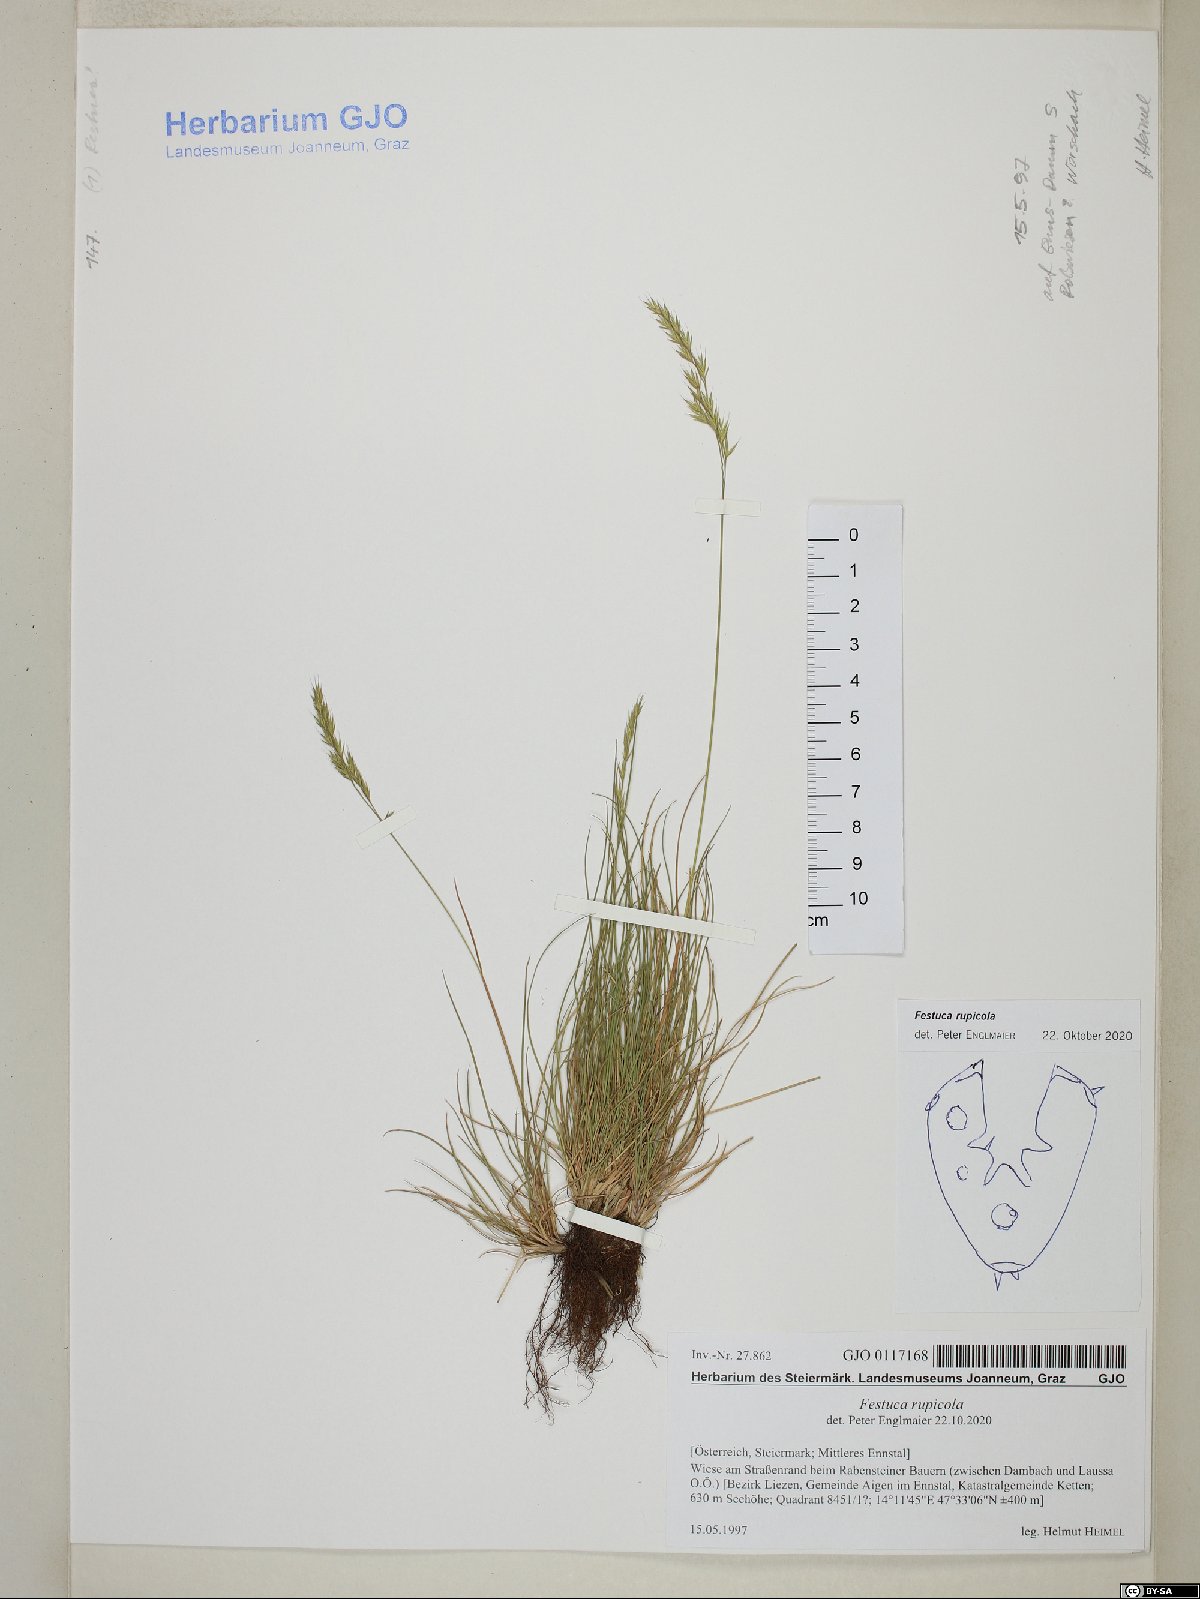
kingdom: Plantae
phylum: Tracheophyta
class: Liliopsida
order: Poales
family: Poaceae
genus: Festuca
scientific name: Festuca rupicola
